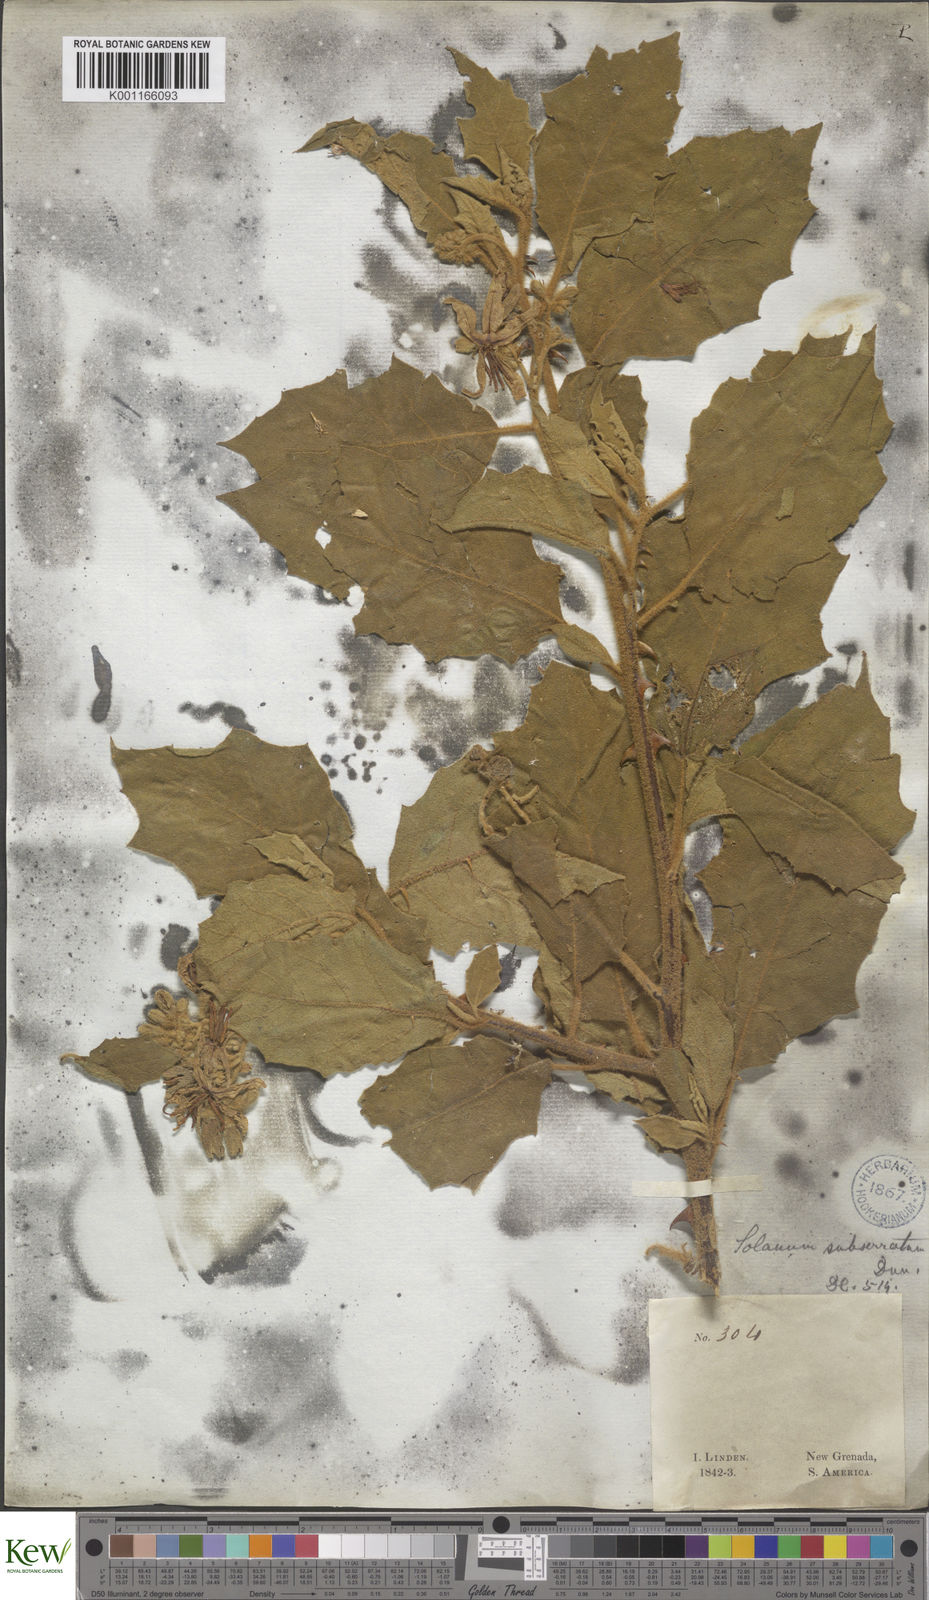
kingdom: Plantae
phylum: Tracheophyta
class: Magnoliopsida
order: Solanales
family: Solanaceae
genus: Solanum
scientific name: Solanum subserratum
